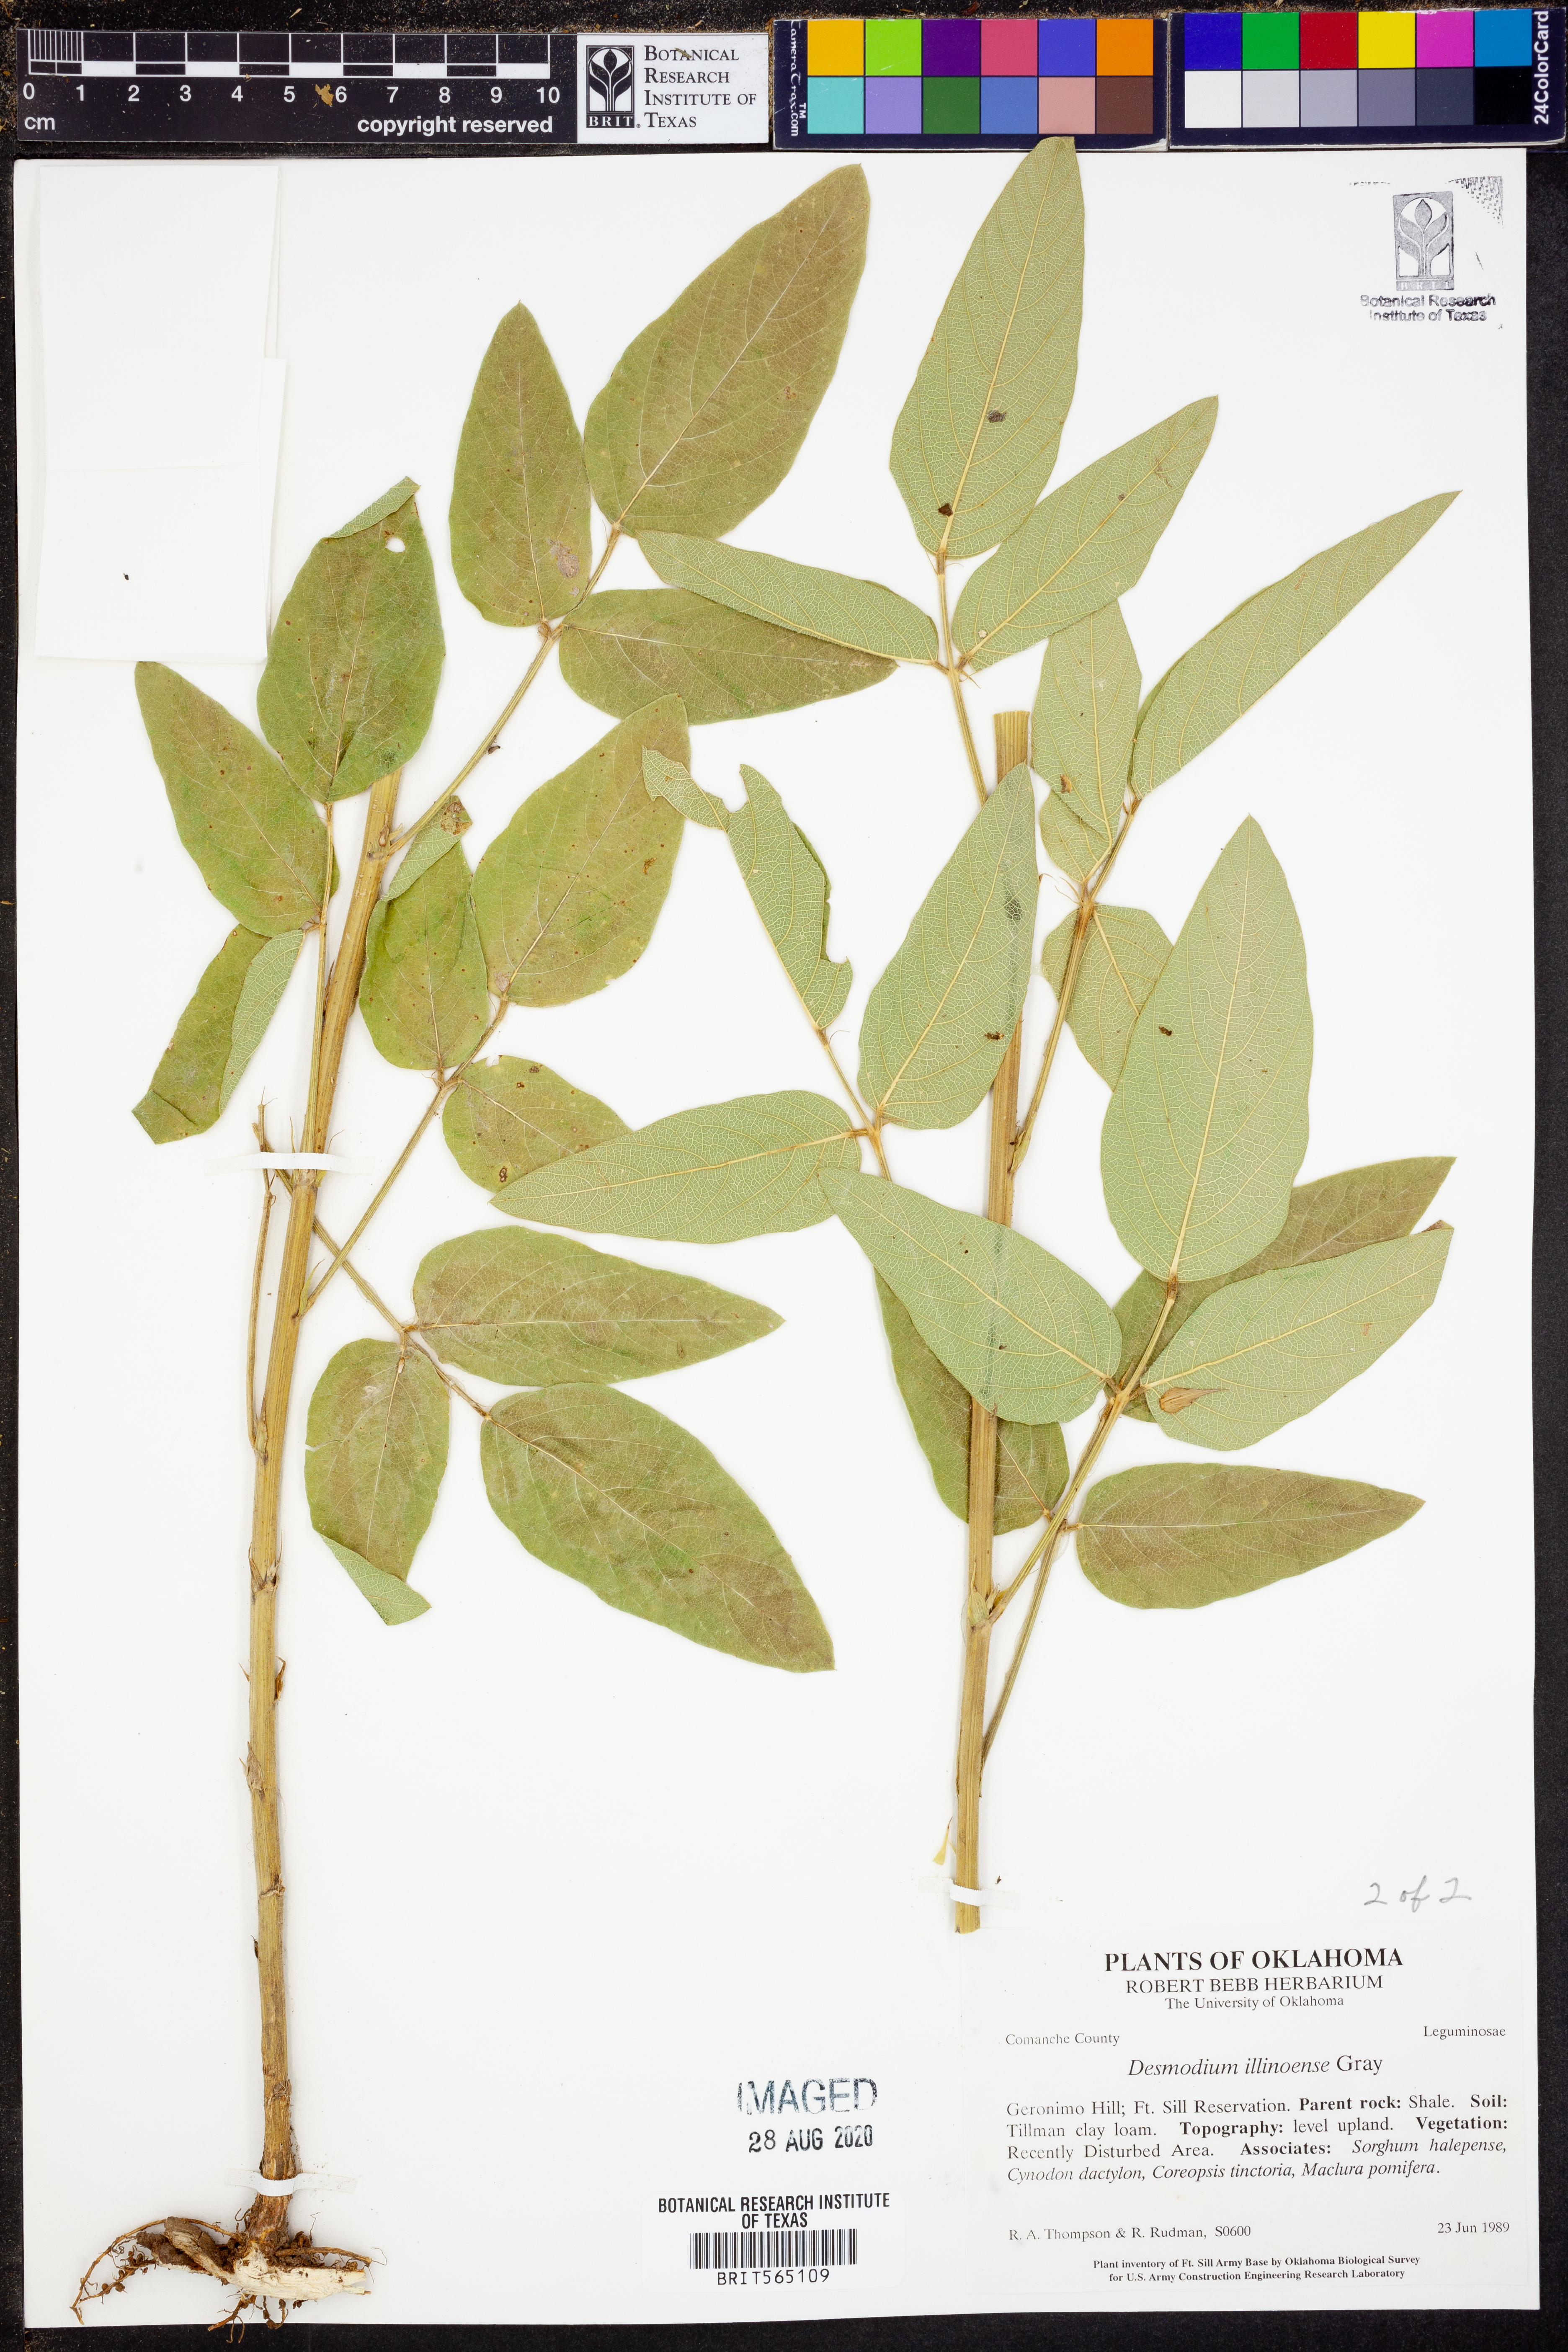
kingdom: Plantae
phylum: Tracheophyta
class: Magnoliopsida
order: Fabales
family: Fabaceae
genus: Desmodium
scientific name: Desmodium illinoense
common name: Illinois tick-clover
